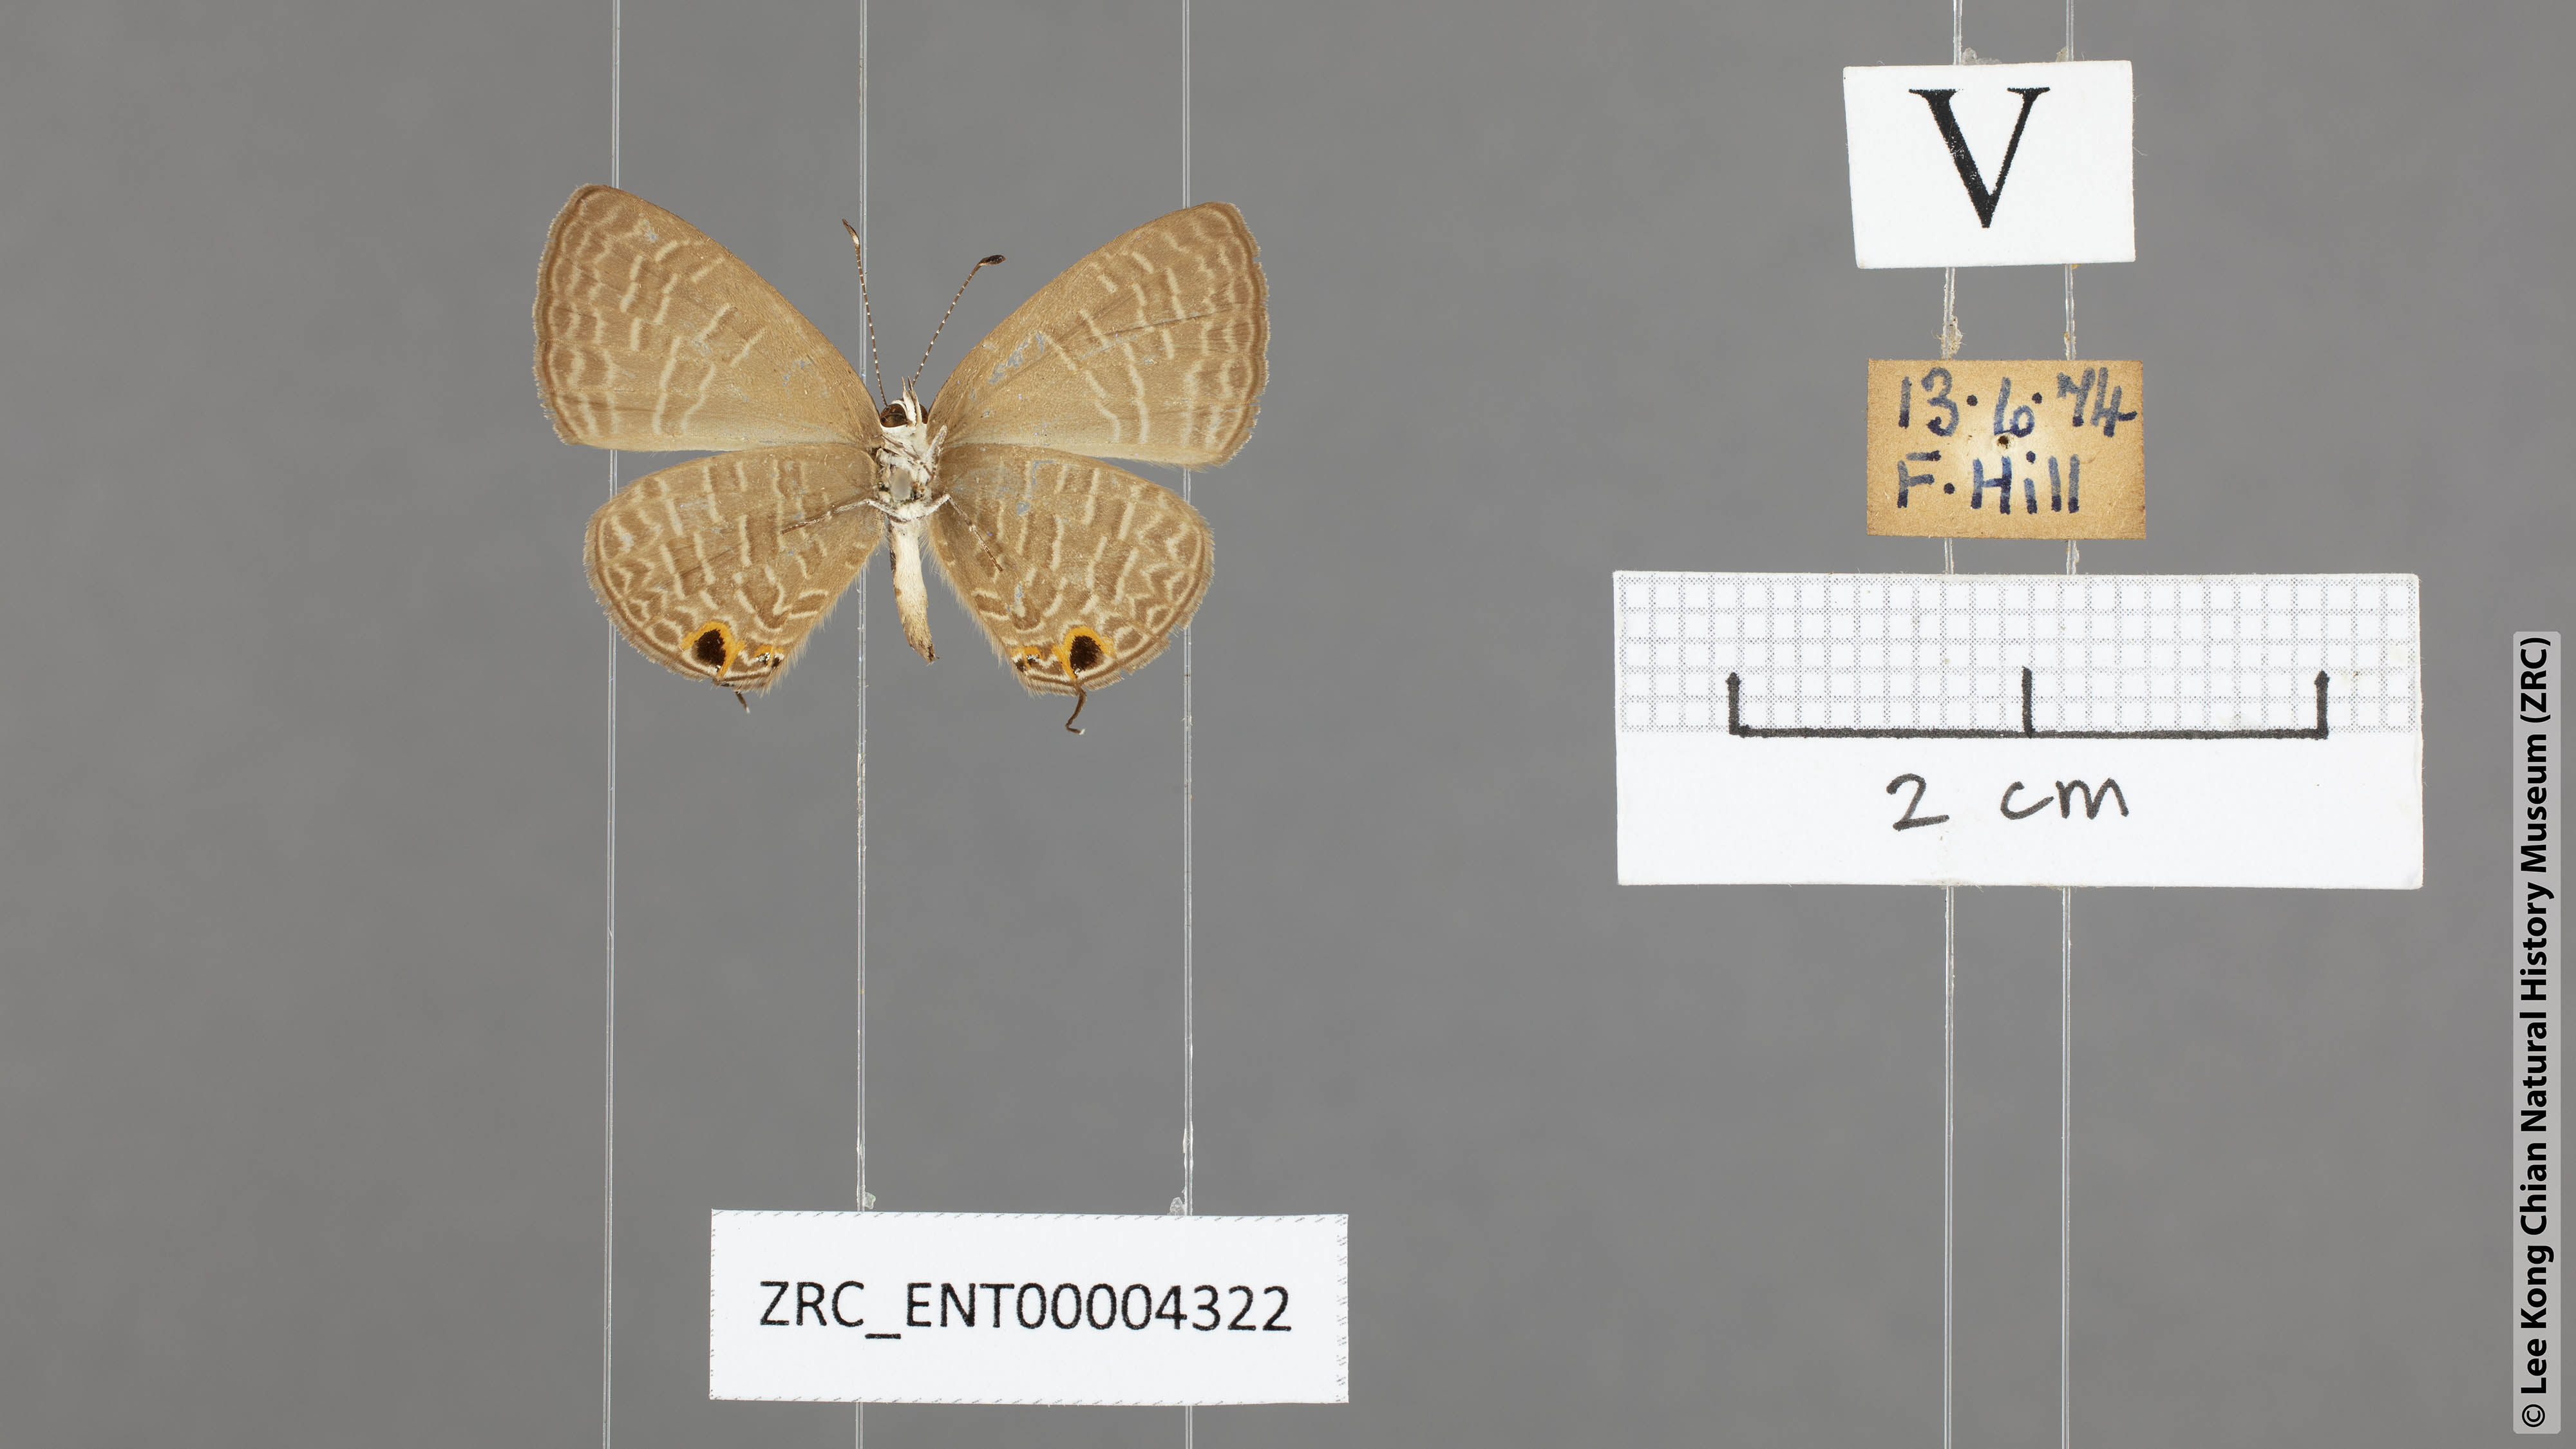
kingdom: Animalia
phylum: Arthropoda
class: Insecta
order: Lepidoptera
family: Lycaenidae
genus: Jamides
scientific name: Jamides bochus
